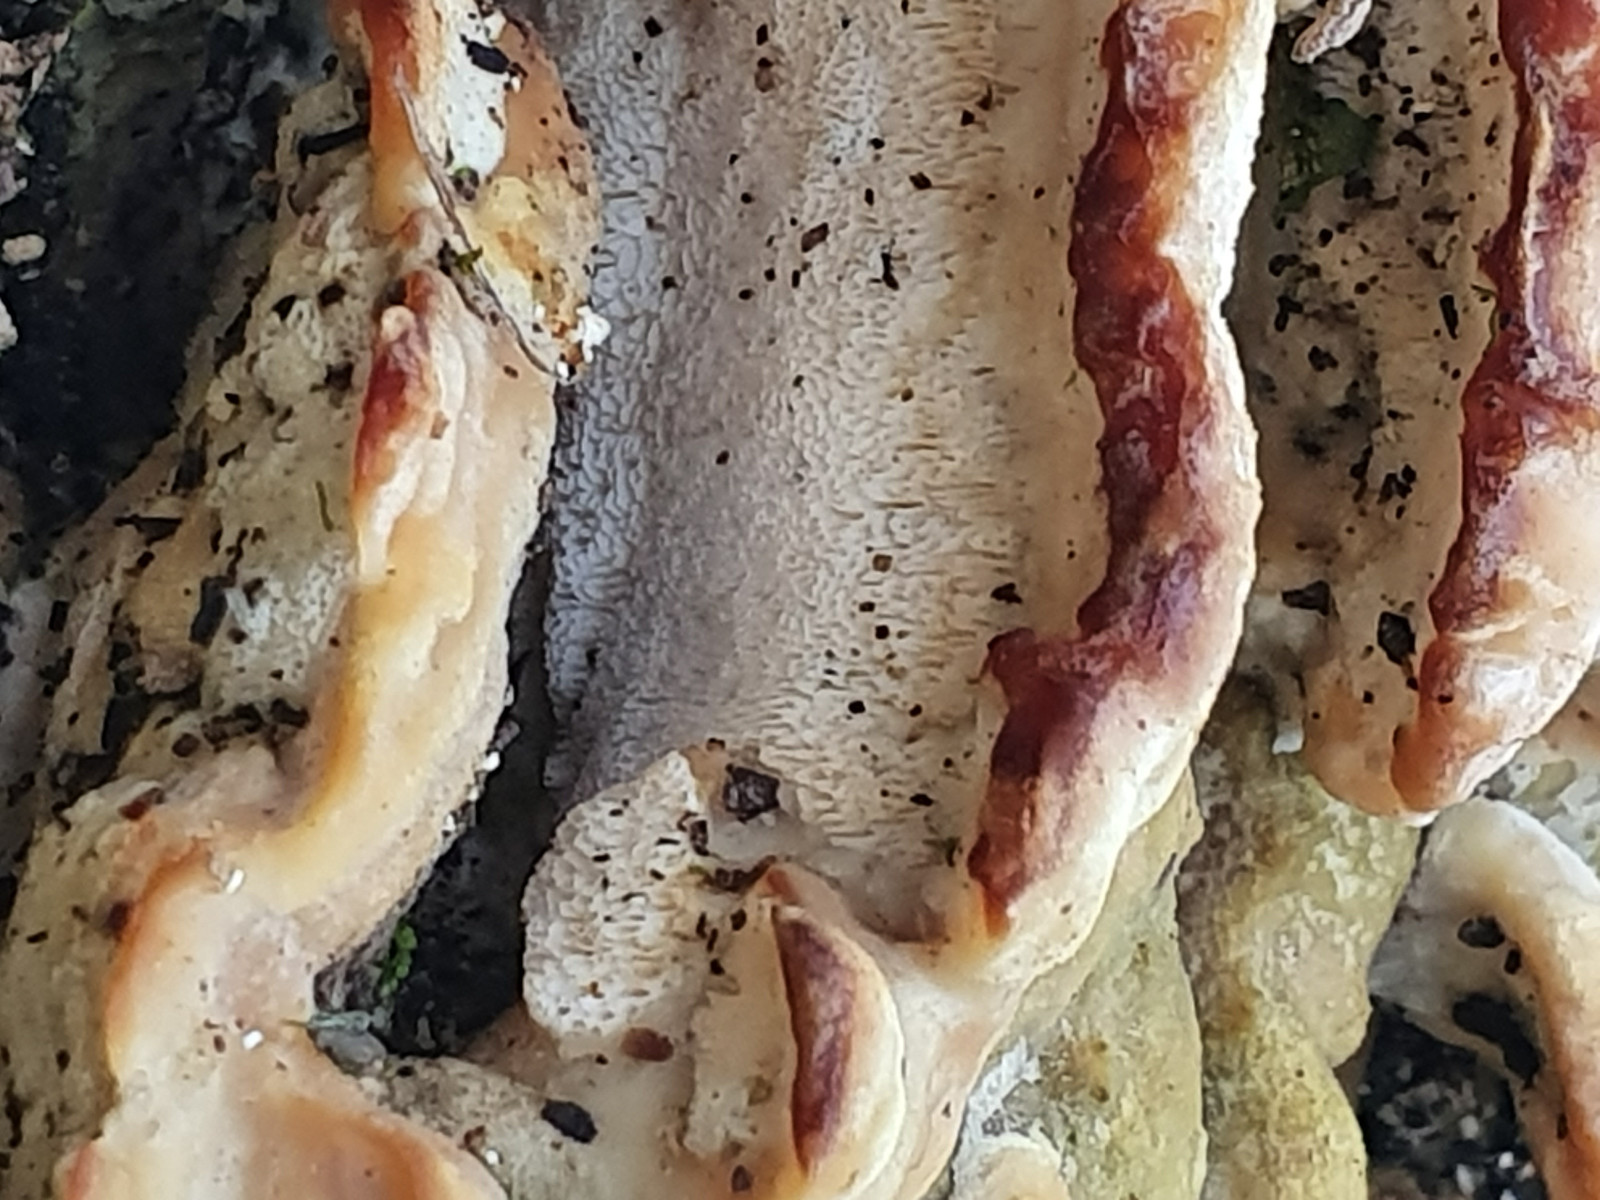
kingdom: Fungi
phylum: Basidiomycota
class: Agaricomycetes
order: Hymenochaetales
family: Oxyporaceae
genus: Oxyporus
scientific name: Oxyporus populinus
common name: sammenvokset trylleporesvamp
